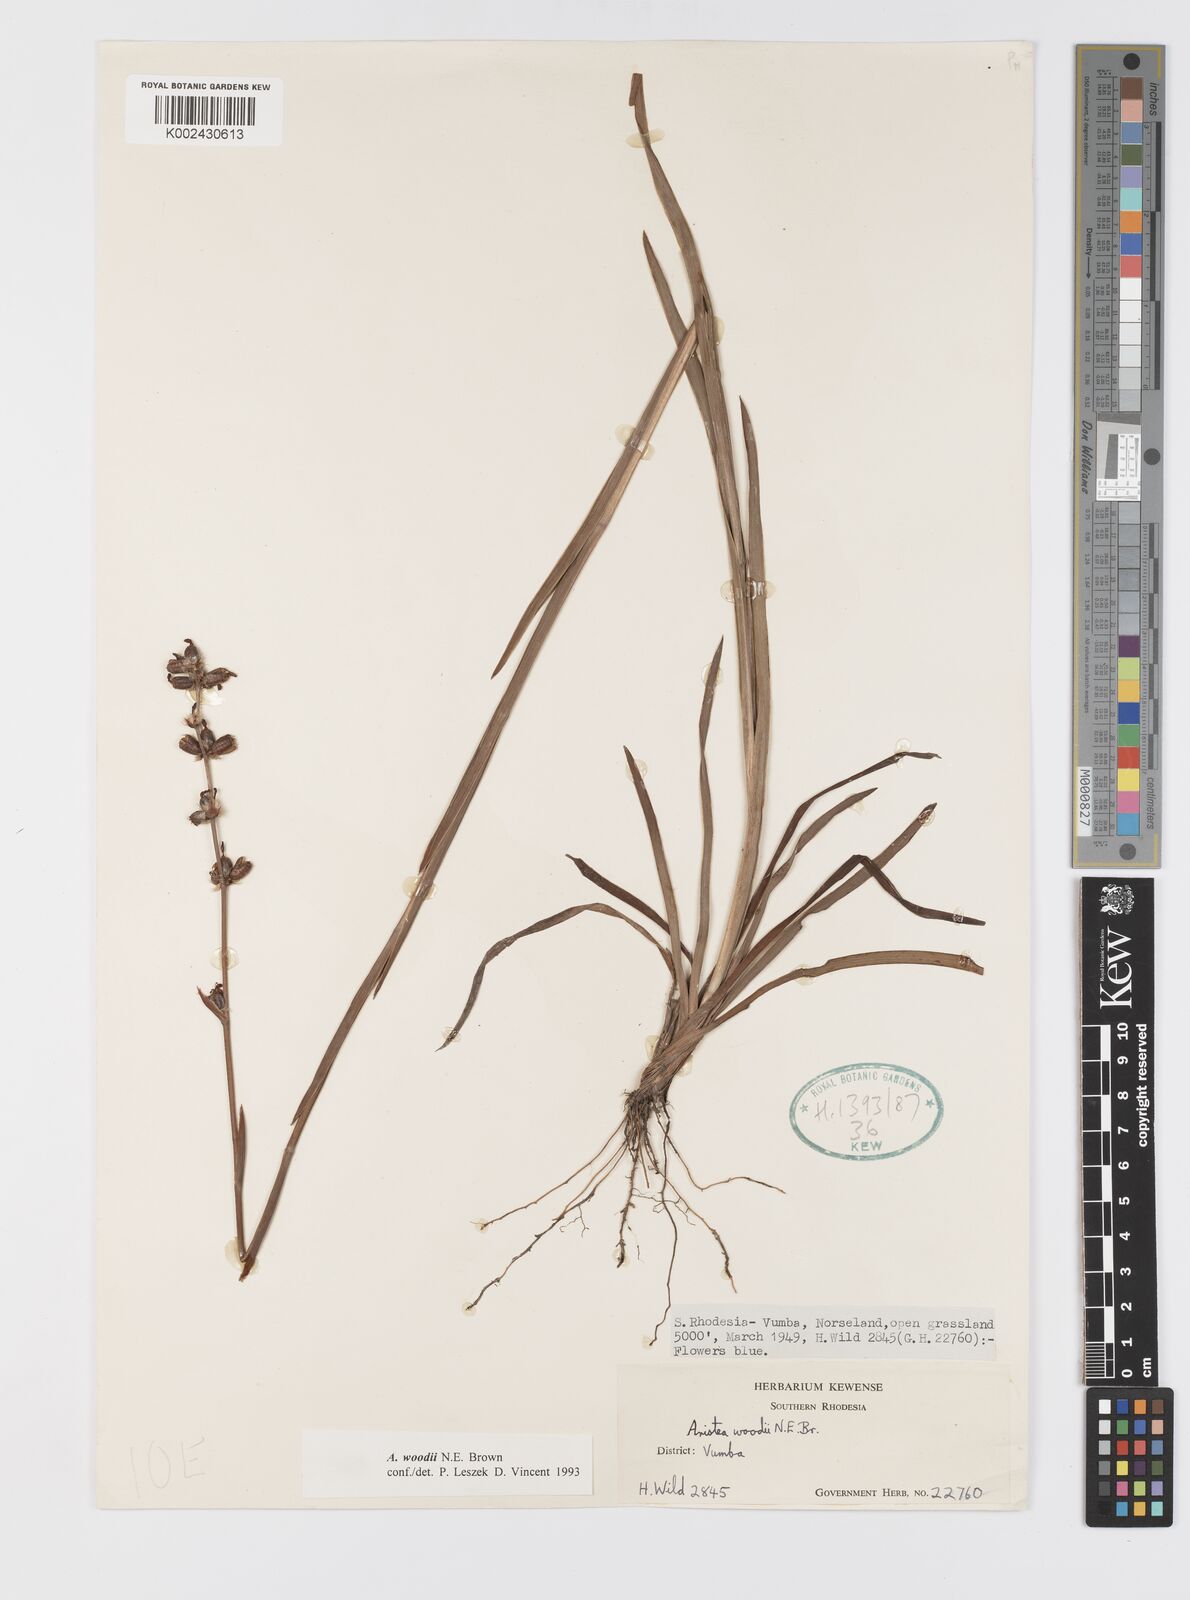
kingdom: Plantae
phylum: Tracheophyta
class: Liliopsida
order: Asparagales
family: Iridaceae
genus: Aristea
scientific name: Aristea torulosa
